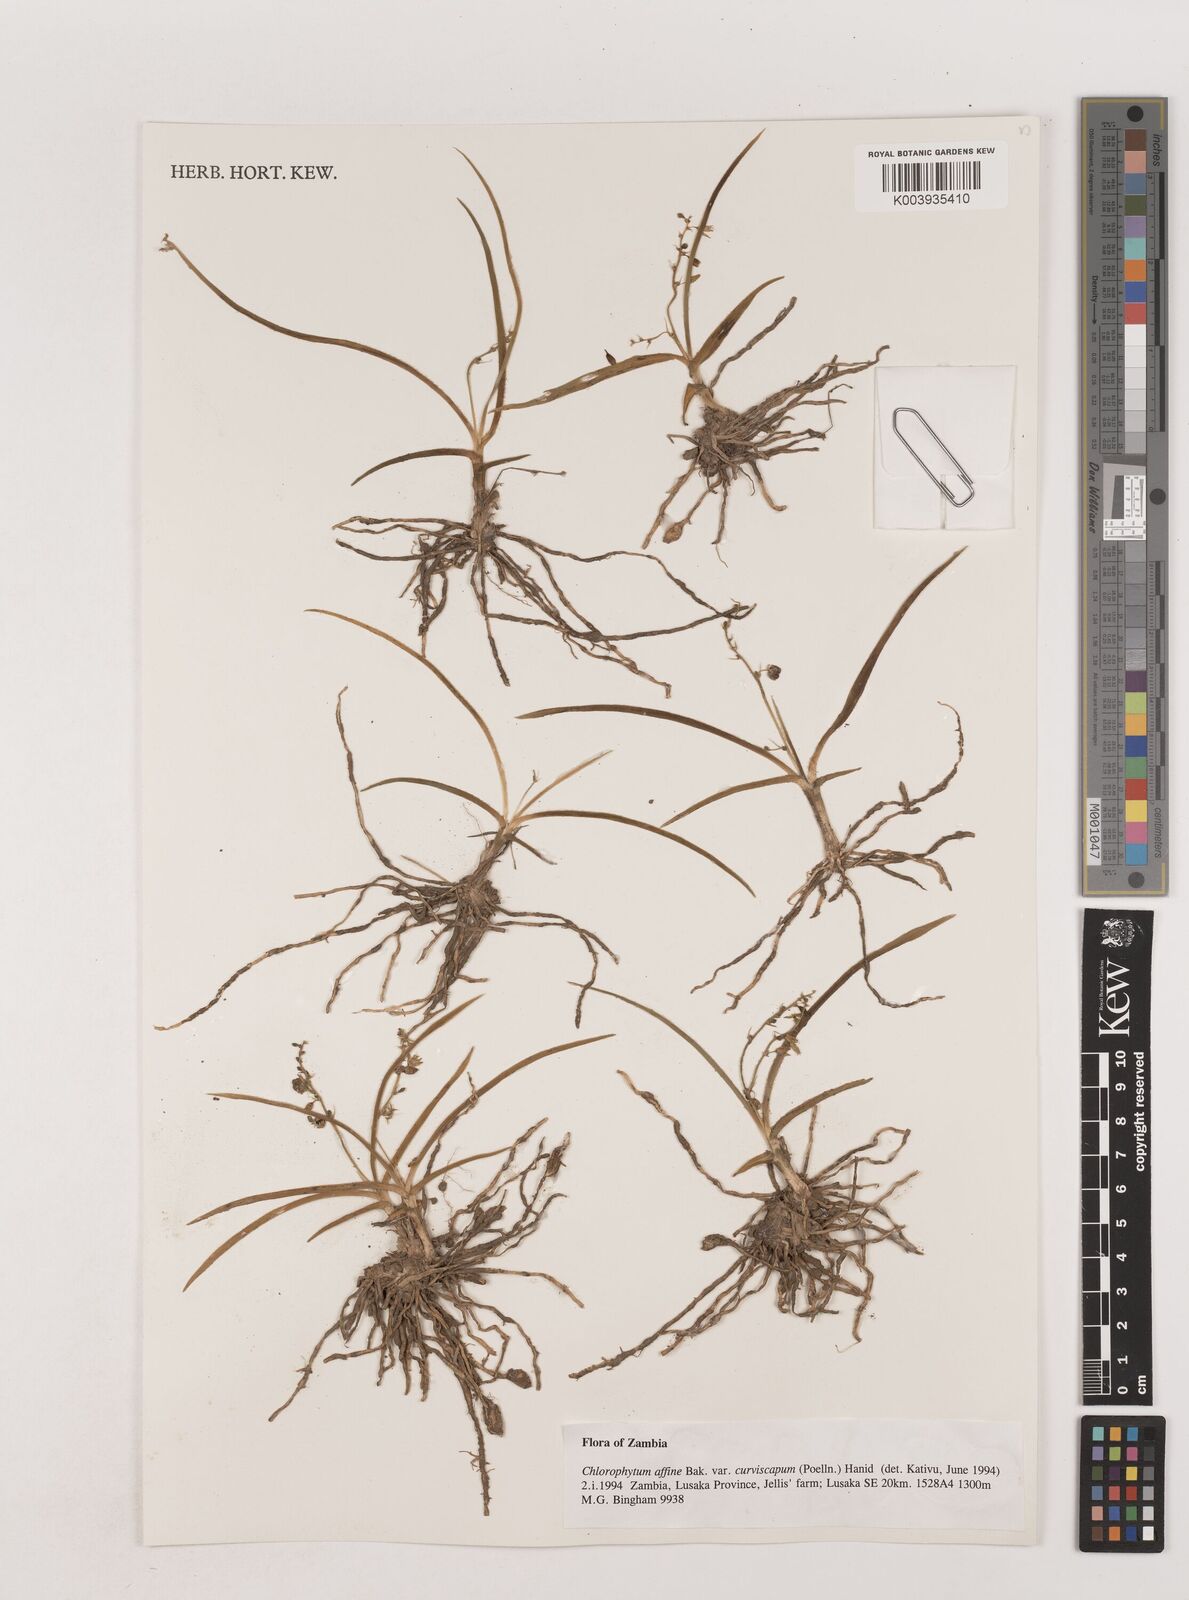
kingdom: Plantae
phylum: Tracheophyta
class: Liliopsida
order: Asparagales
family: Asparagaceae
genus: Chlorophytum
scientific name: Chlorophytum tordense
